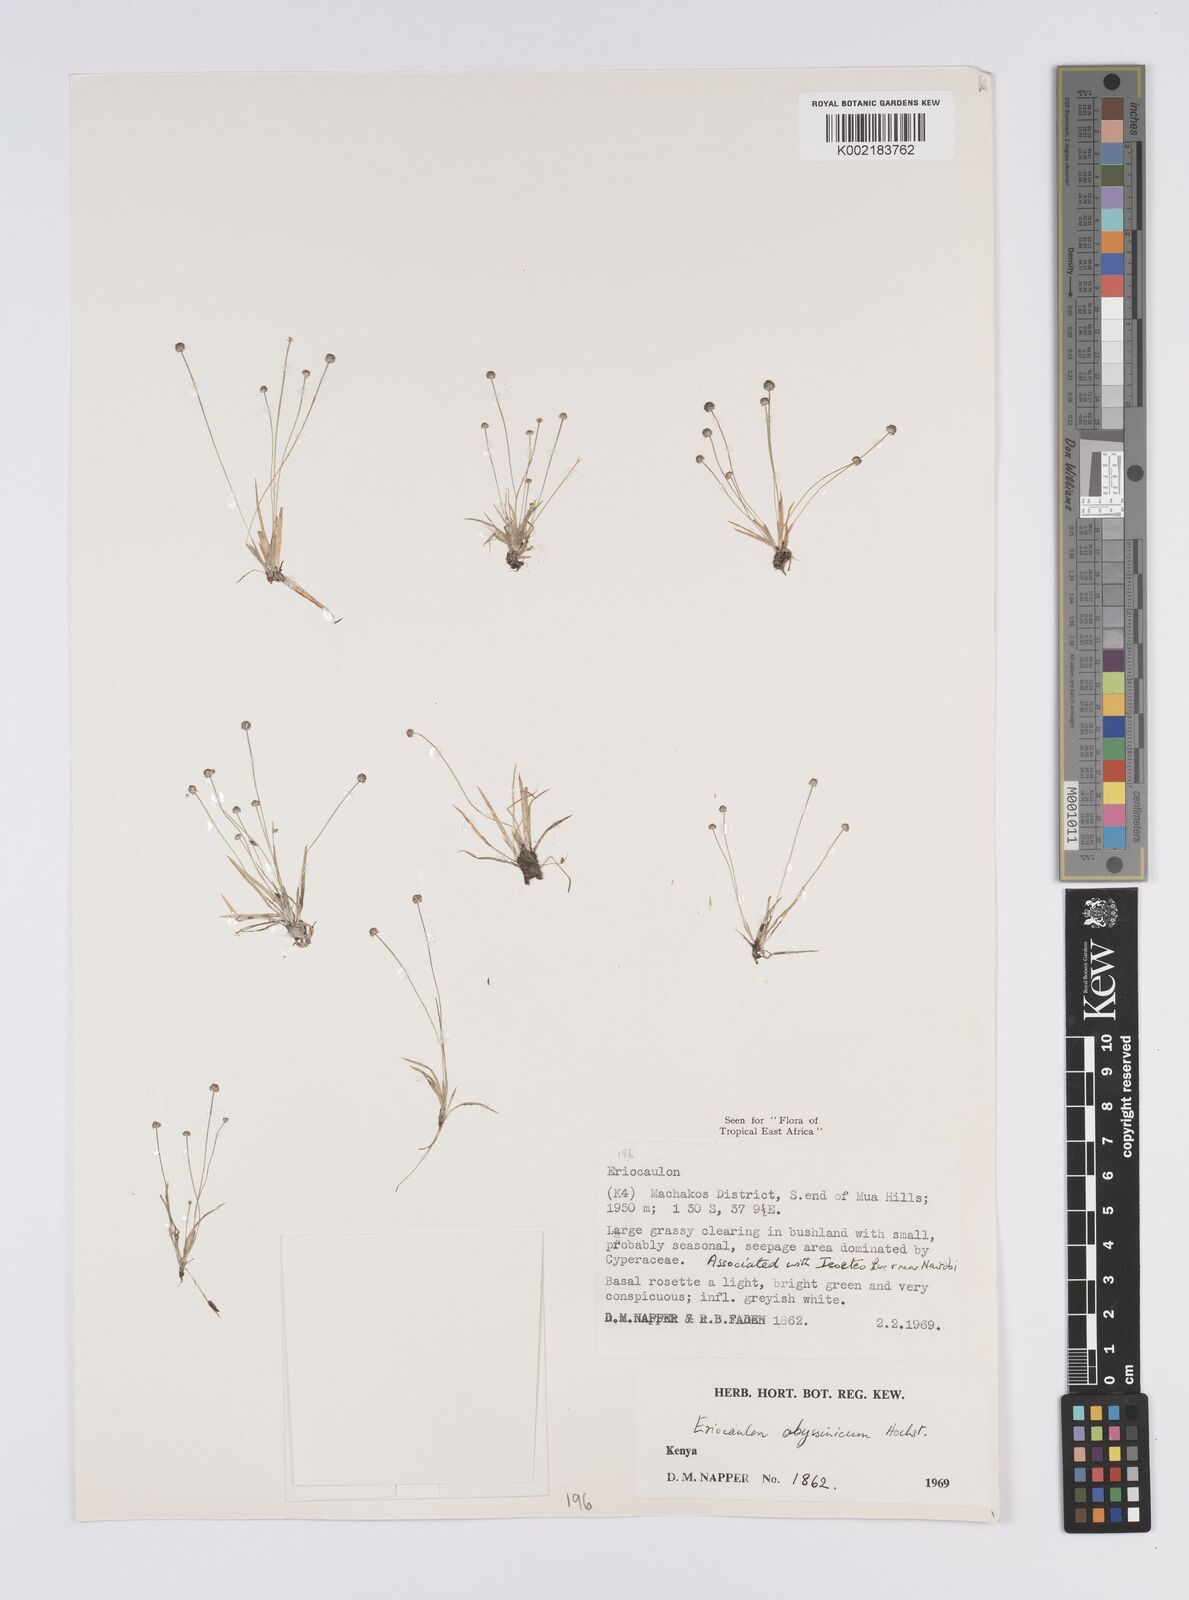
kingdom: Plantae
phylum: Tracheophyta
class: Liliopsida
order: Poales
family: Eriocaulaceae
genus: Eriocaulon
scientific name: Eriocaulon abyssinicum
